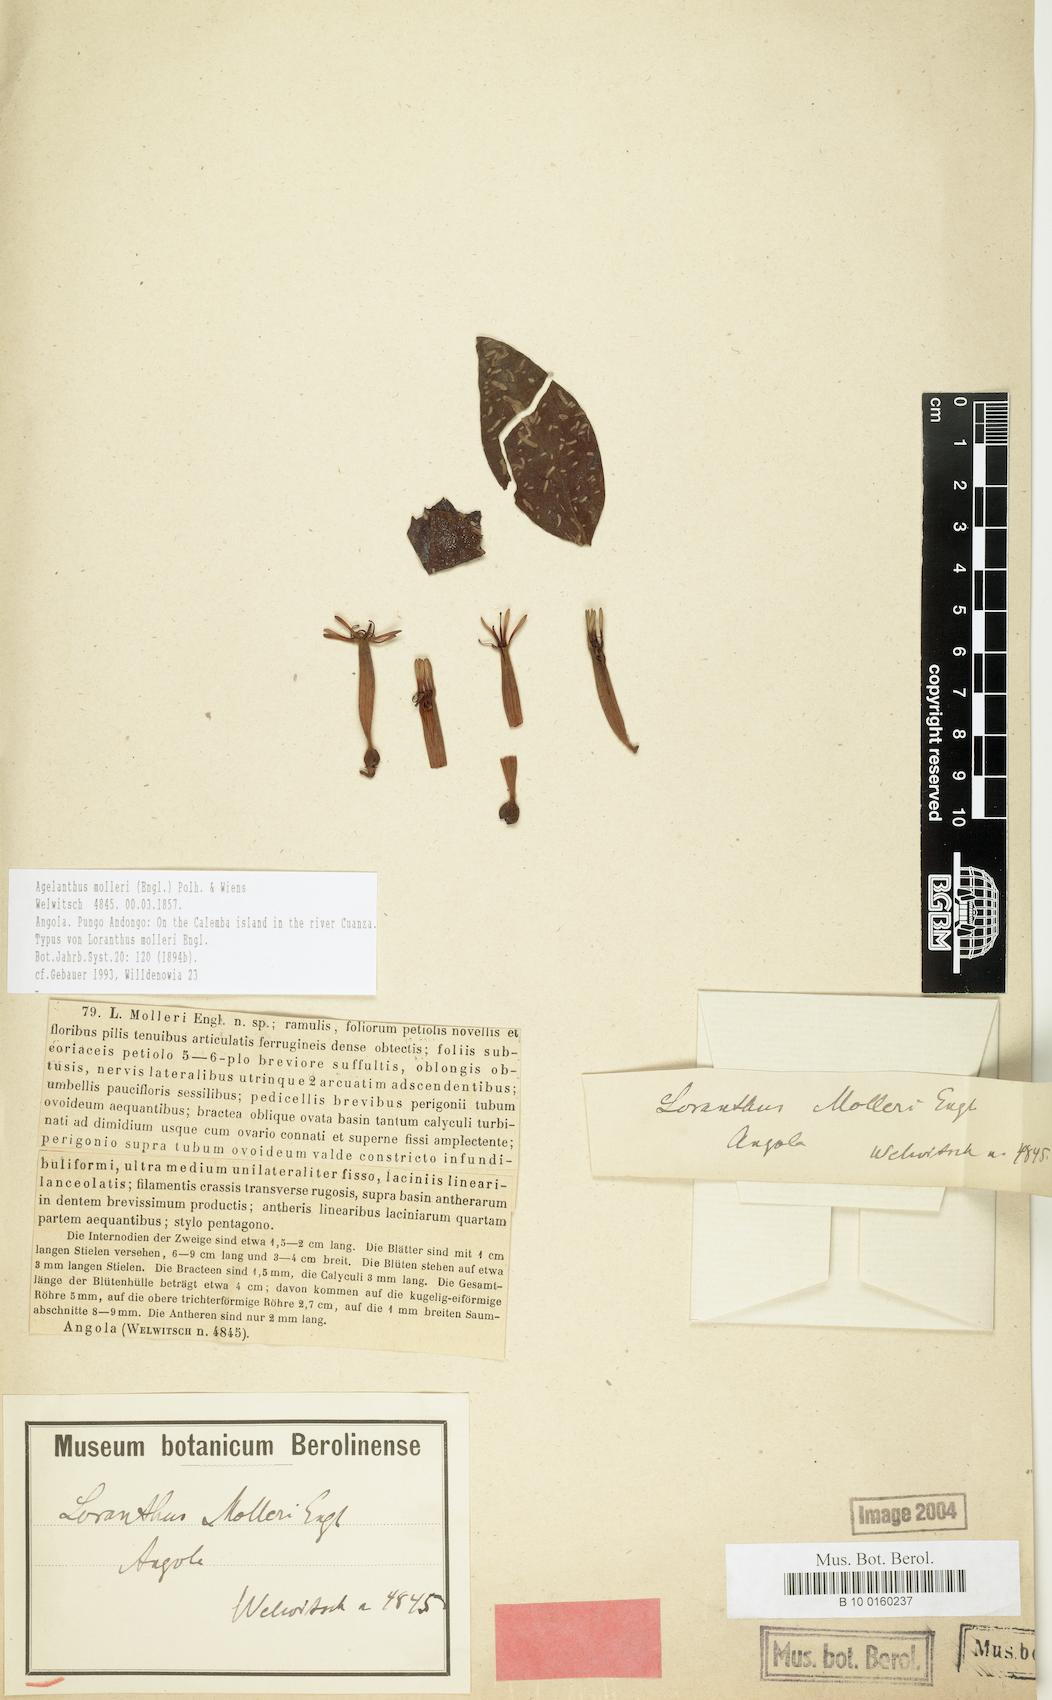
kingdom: Plantae
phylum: Tracheophyta
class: Magnoliopsida
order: Santalales
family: Loranthaceae
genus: Agelanthus
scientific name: Agelanthus molleri
